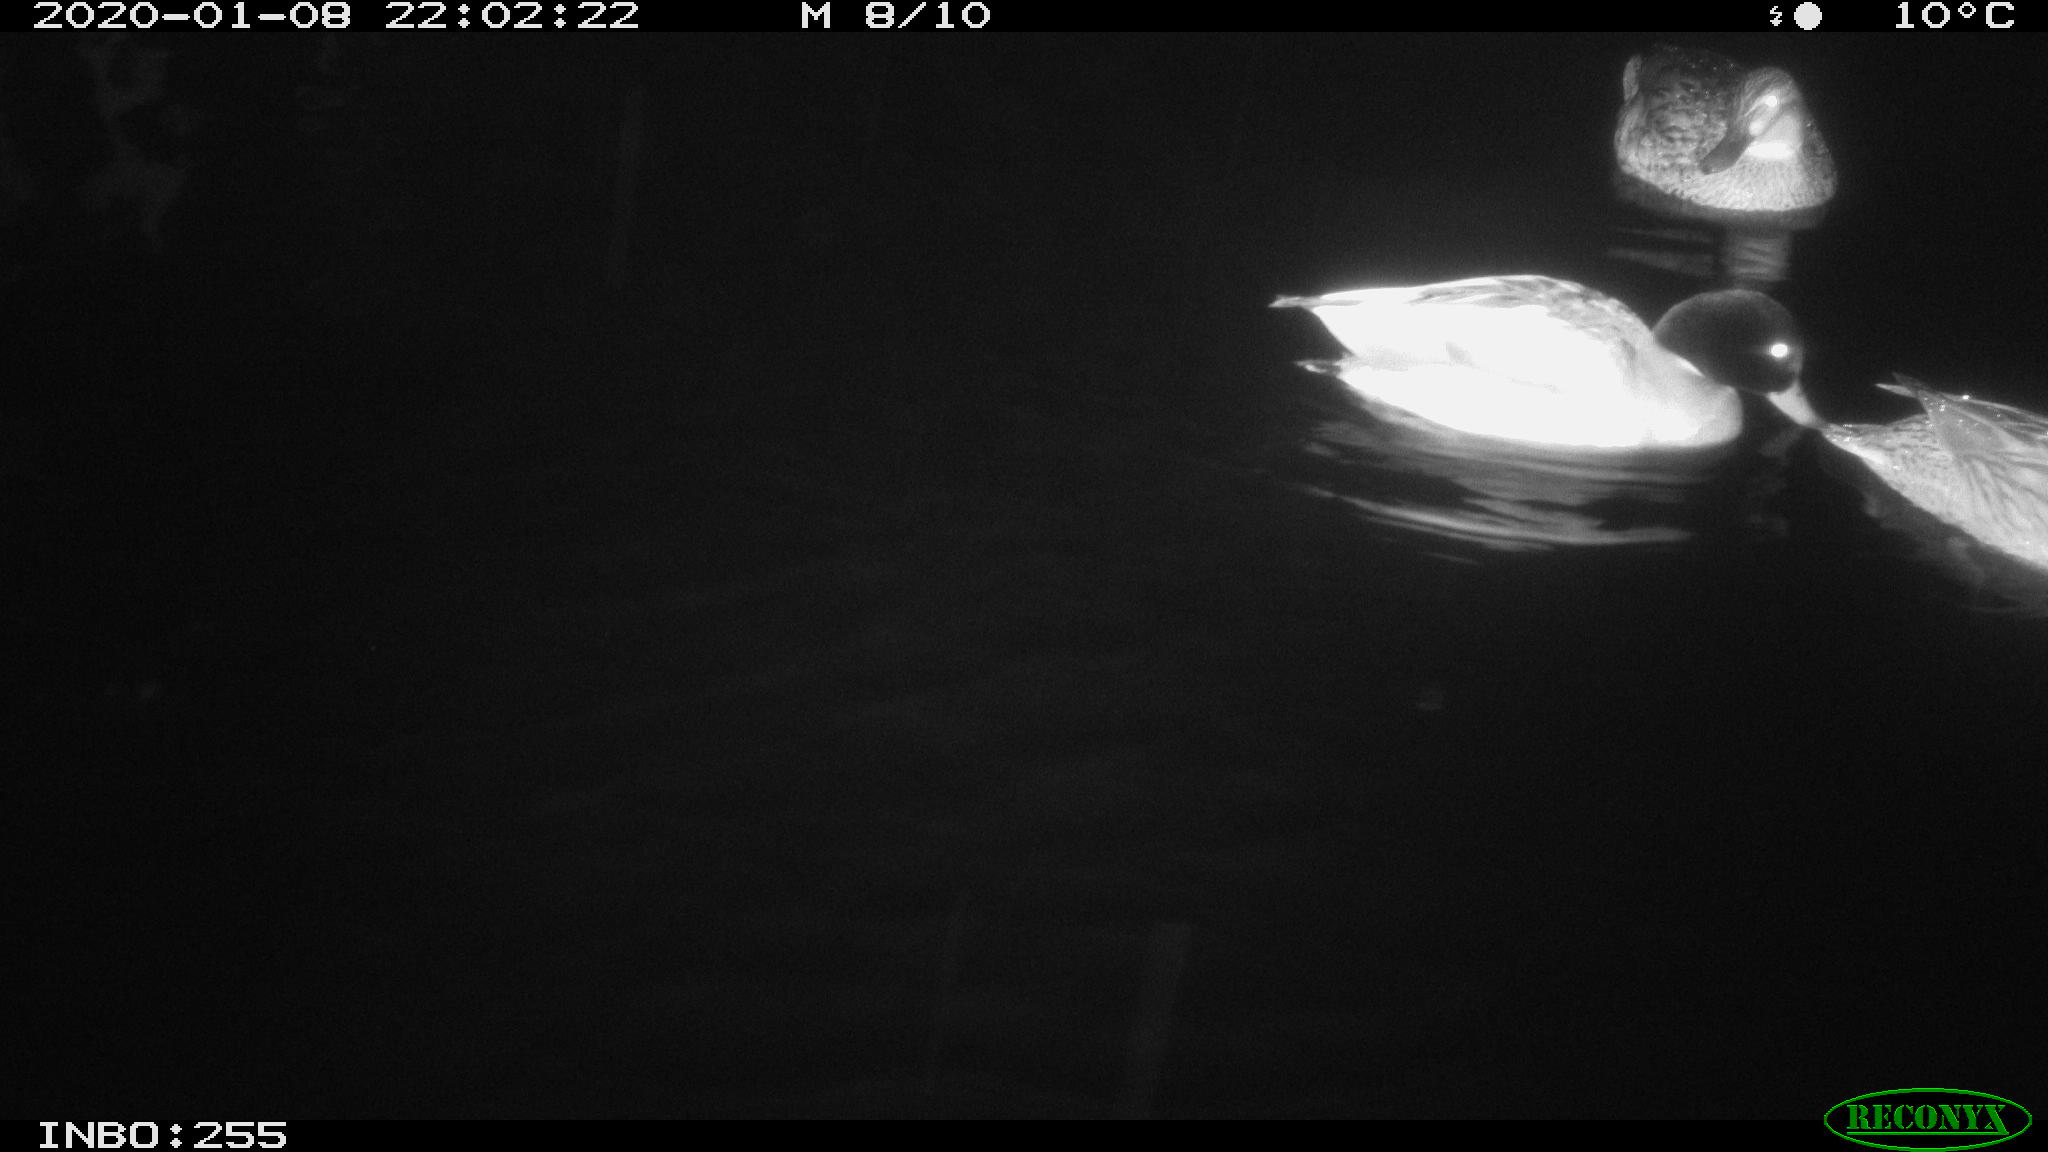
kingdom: Animalia
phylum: Chordata
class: Aves
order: Anseriformes
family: Anatidae
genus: Anas
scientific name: Anas platyrhynchos
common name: Mallard
